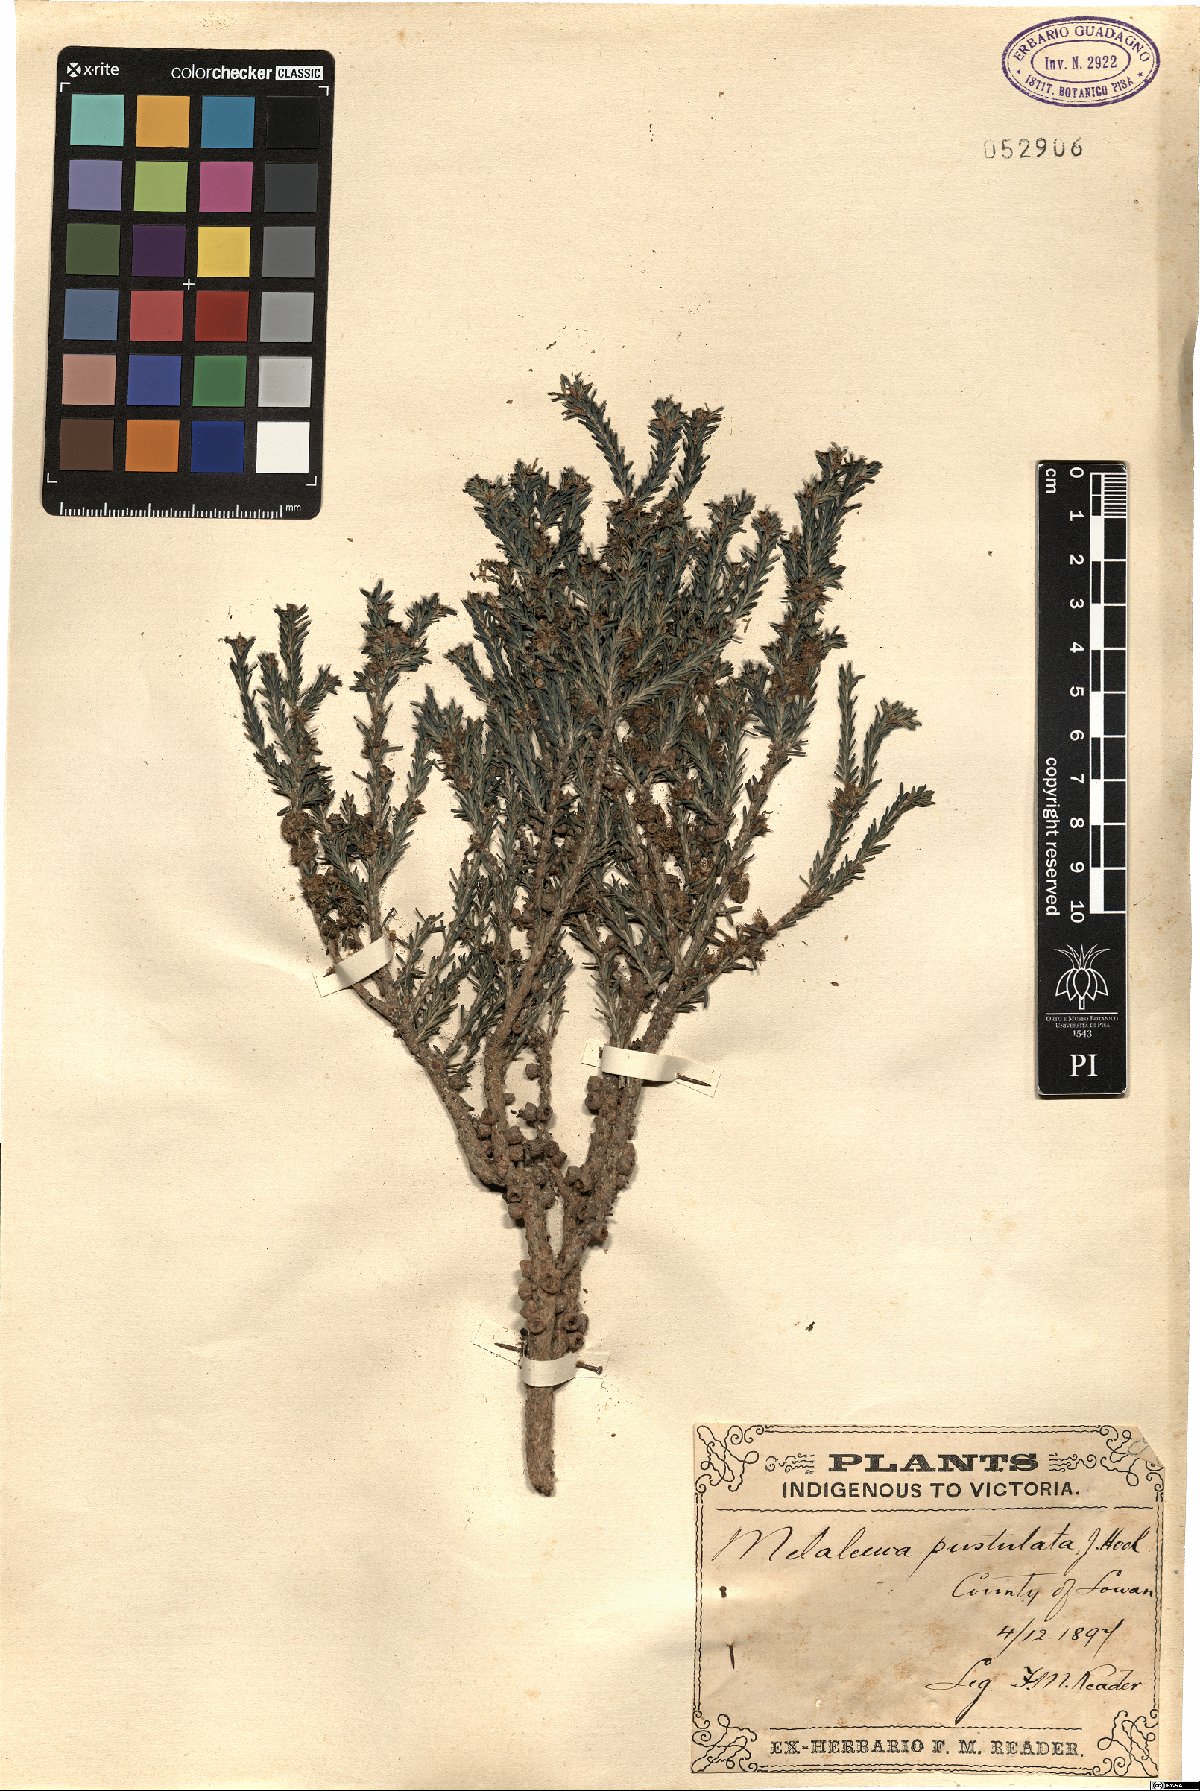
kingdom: Plantae
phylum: Tracheophyta
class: Magnoliopsida
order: Myrtales
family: Myrtaceae
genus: Melaleuca
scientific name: Melaleuca pustulata
